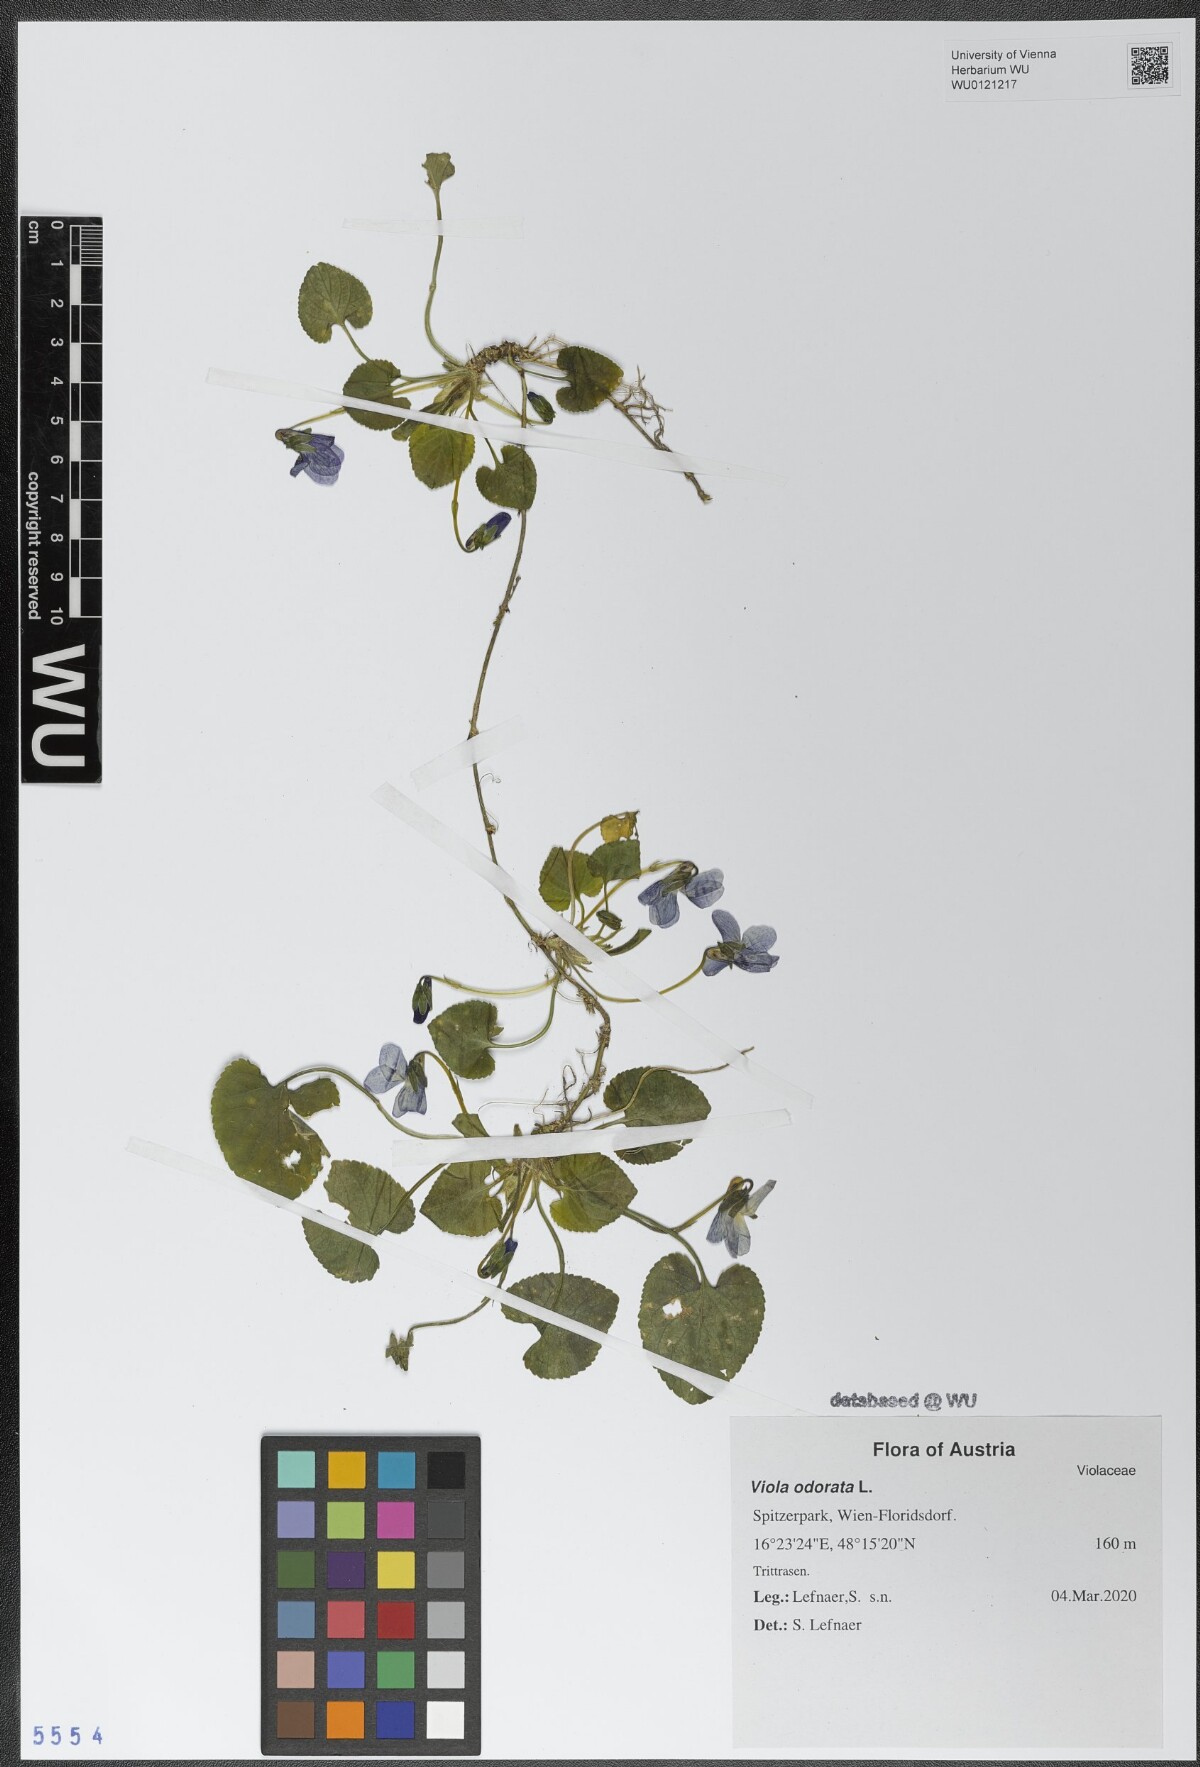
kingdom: Plantae
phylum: Tracheophyta
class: Magnoliopsida
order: Malpighiales
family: Violaceae
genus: Viola
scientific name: Viola odorata
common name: Sweet violet
